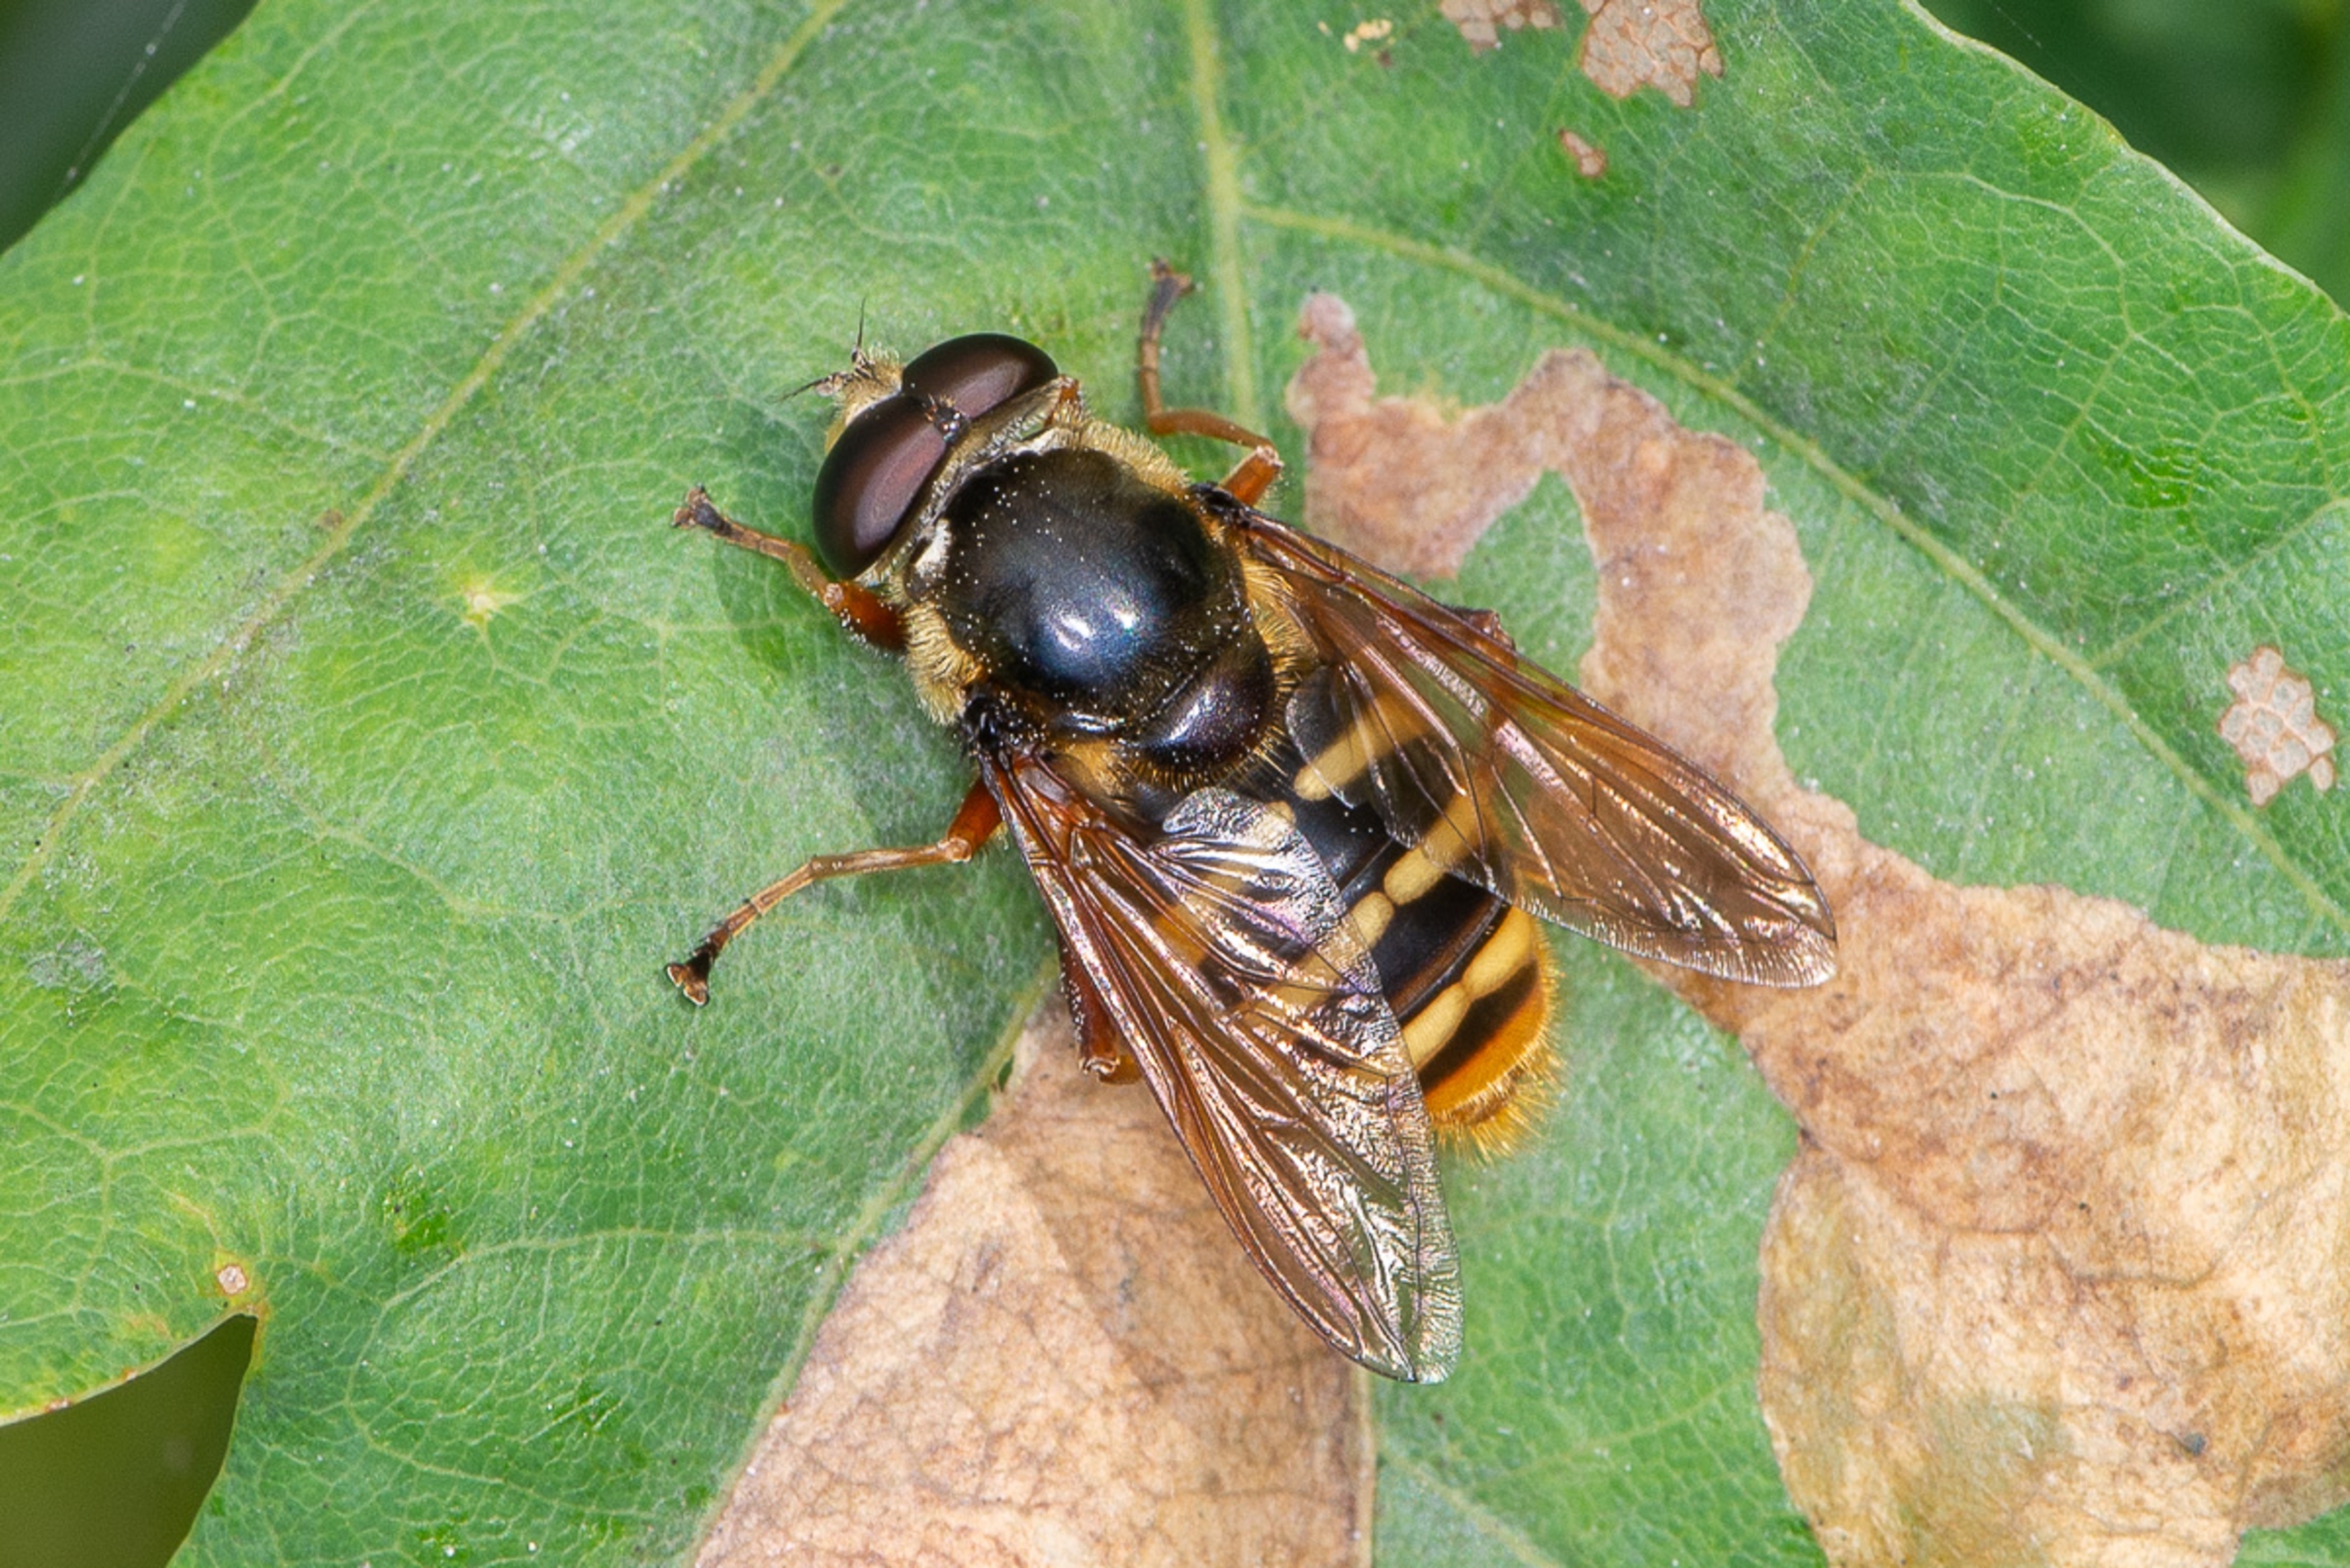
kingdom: Animalia
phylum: Arthropoda
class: Insecta
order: Diptera
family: Syrphidae
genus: Sericomyia
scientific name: Sericomyia silentis
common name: Tørve-silkesvirreflue
